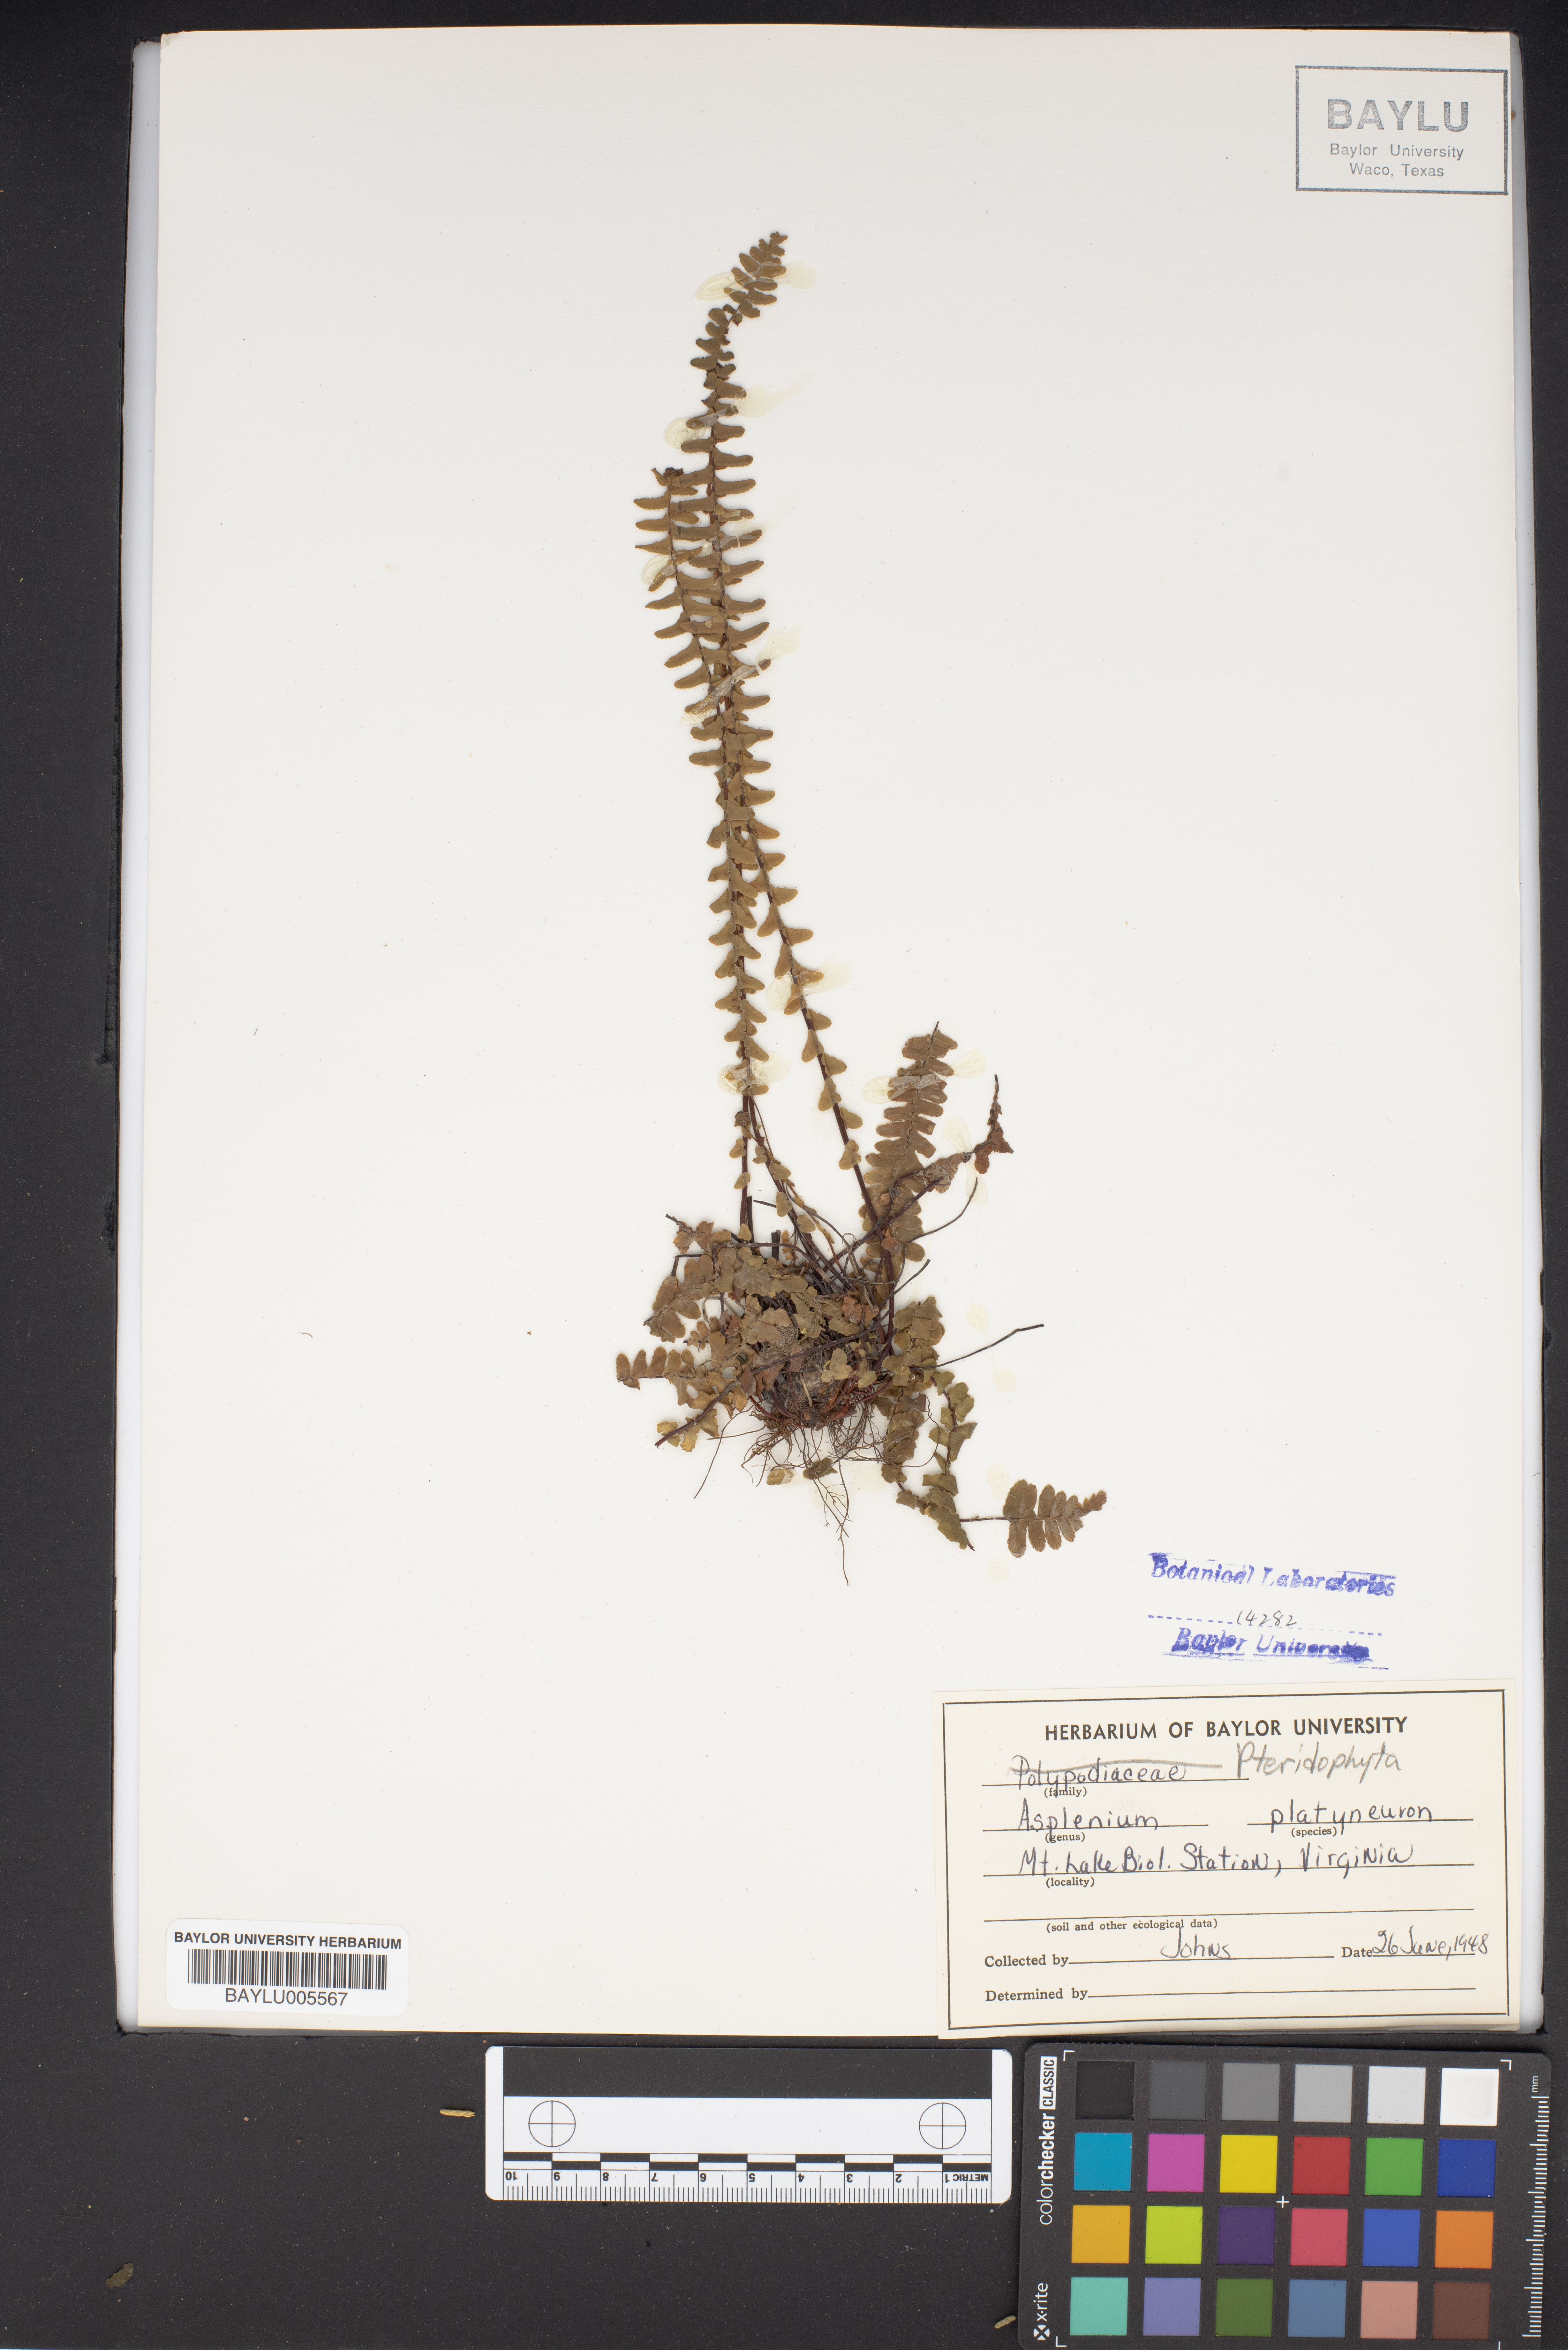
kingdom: Plantae
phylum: Tracheophyta
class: Polypodiopsida
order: Polypodiales
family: Aspleniaceae
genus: Asplenium
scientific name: Asplenium platyneuron
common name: Ebony spleenwort
